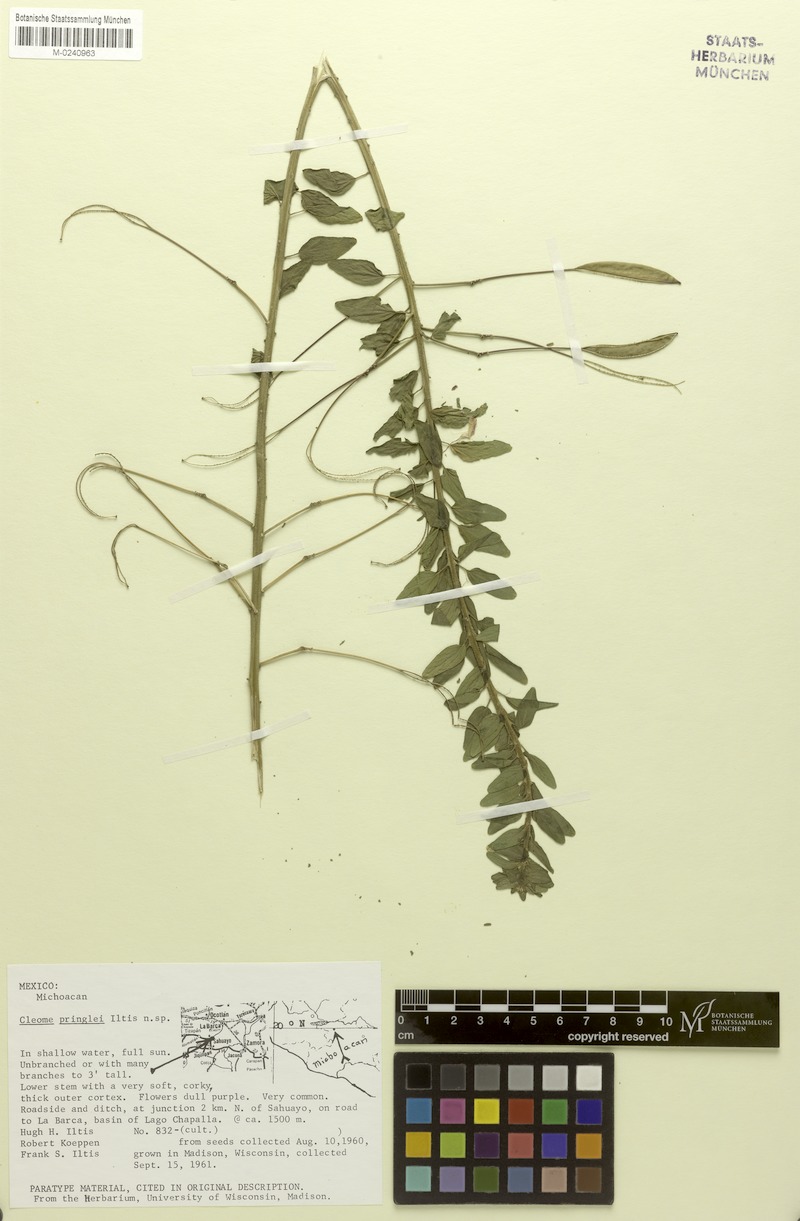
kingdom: Plantae
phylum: Tracheophyta
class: Magnoliopsida
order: Brassicales
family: Cleomaceae
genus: Cleome
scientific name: Cleome pringlei
